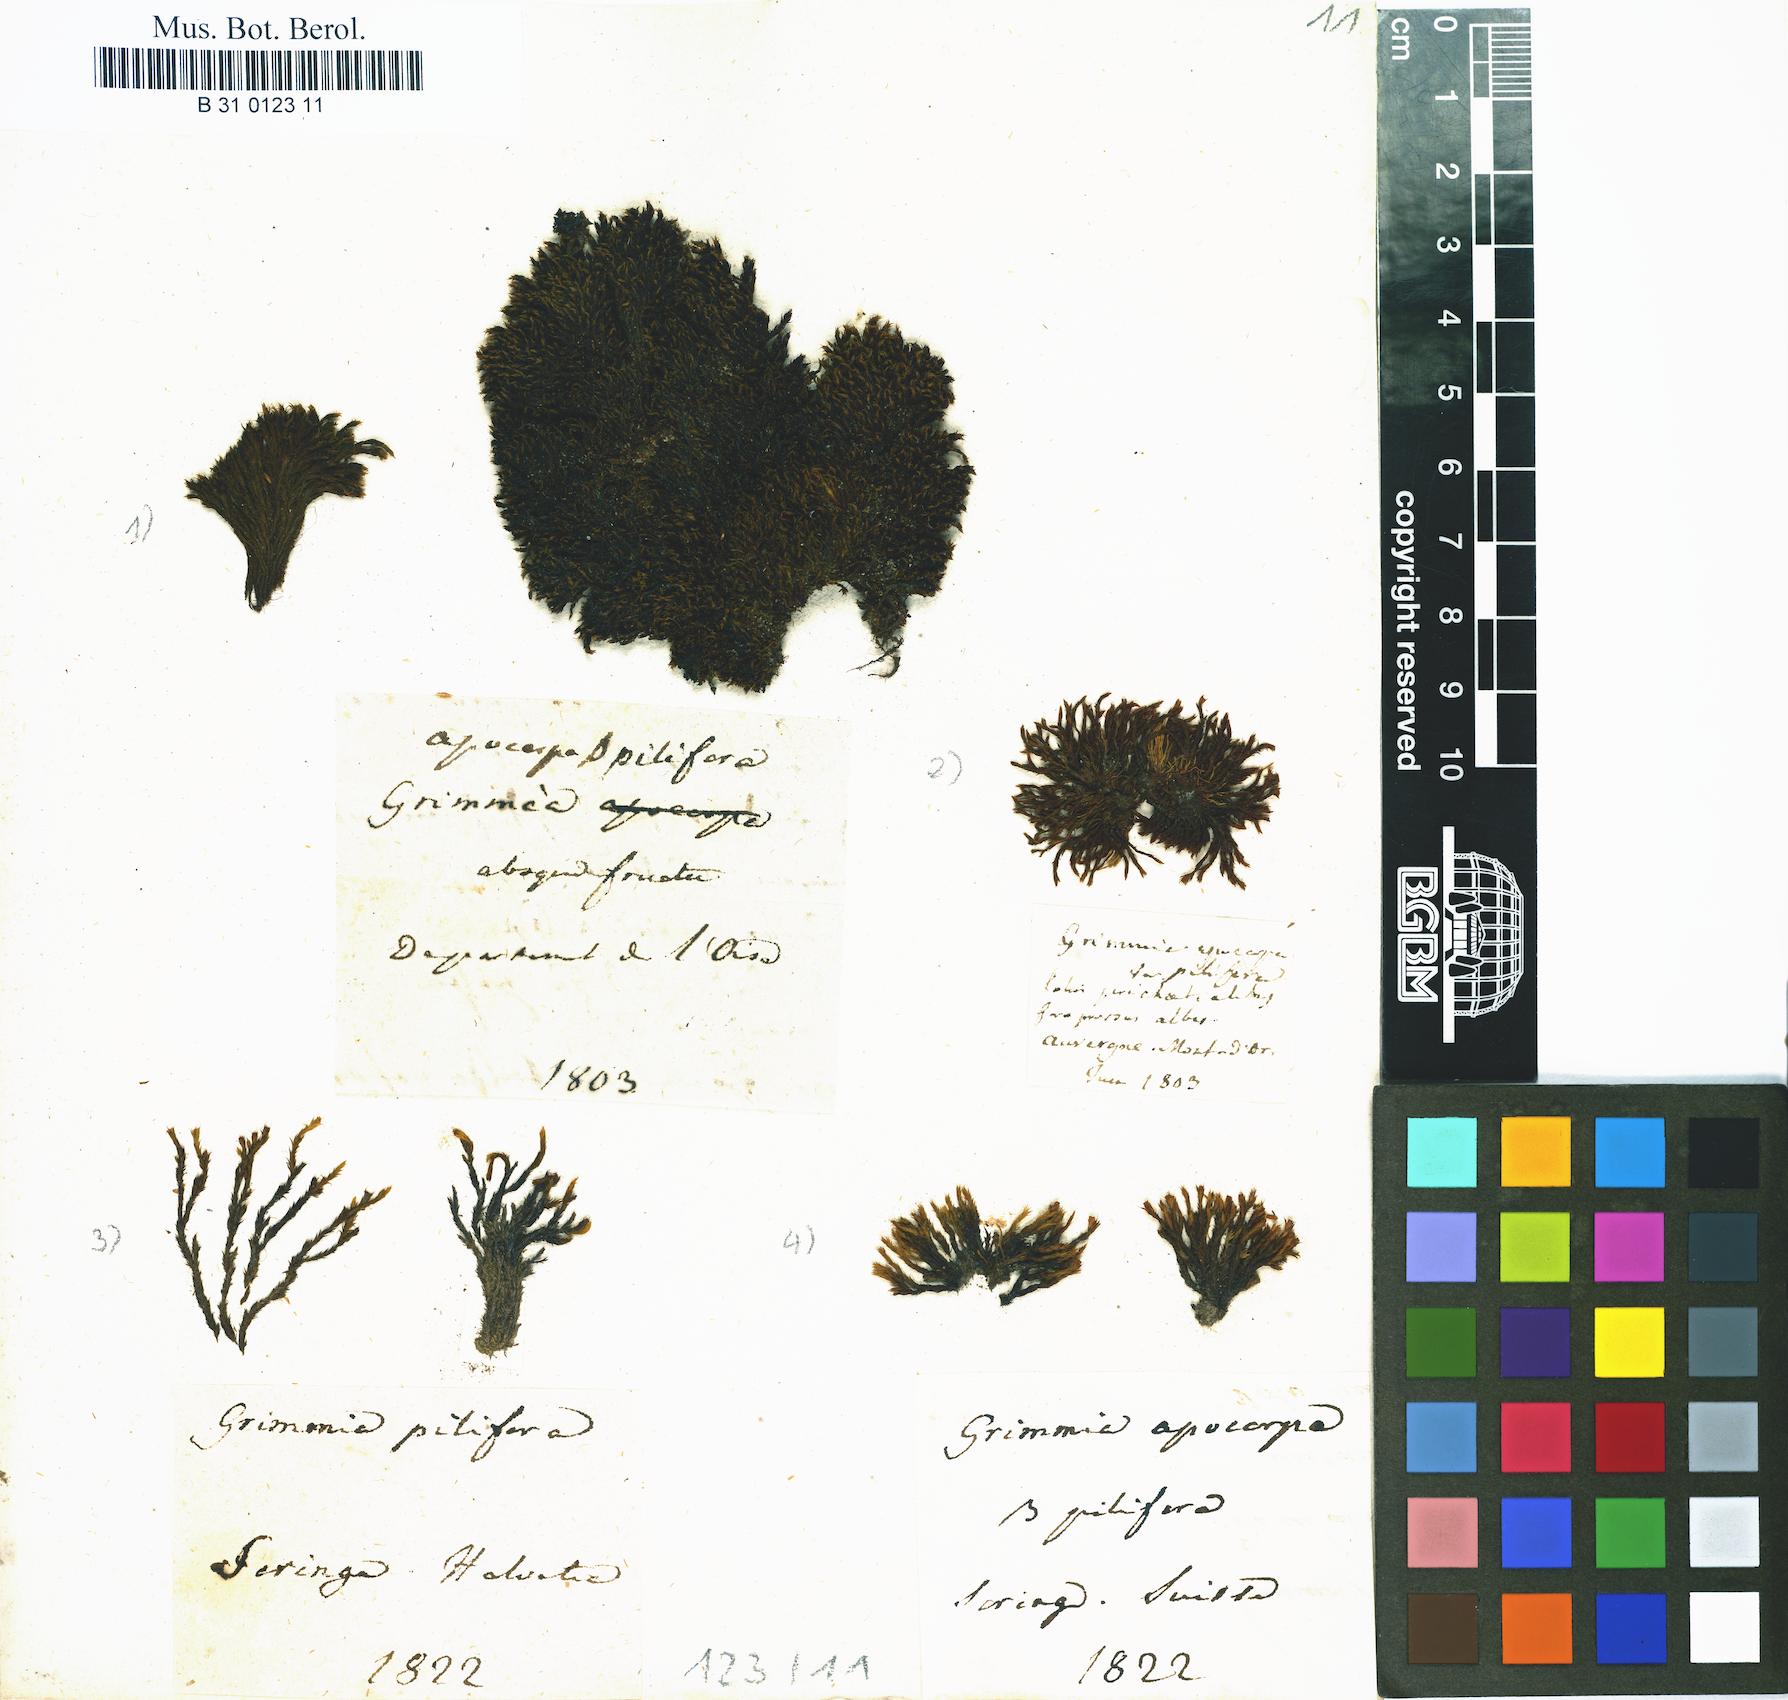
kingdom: Plantae
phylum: Bryophyta
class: Bryopsida
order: Grimmiales
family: Grimmiaceae
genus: Grimmia
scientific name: Grimmia pilifera
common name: Hair grimmia
